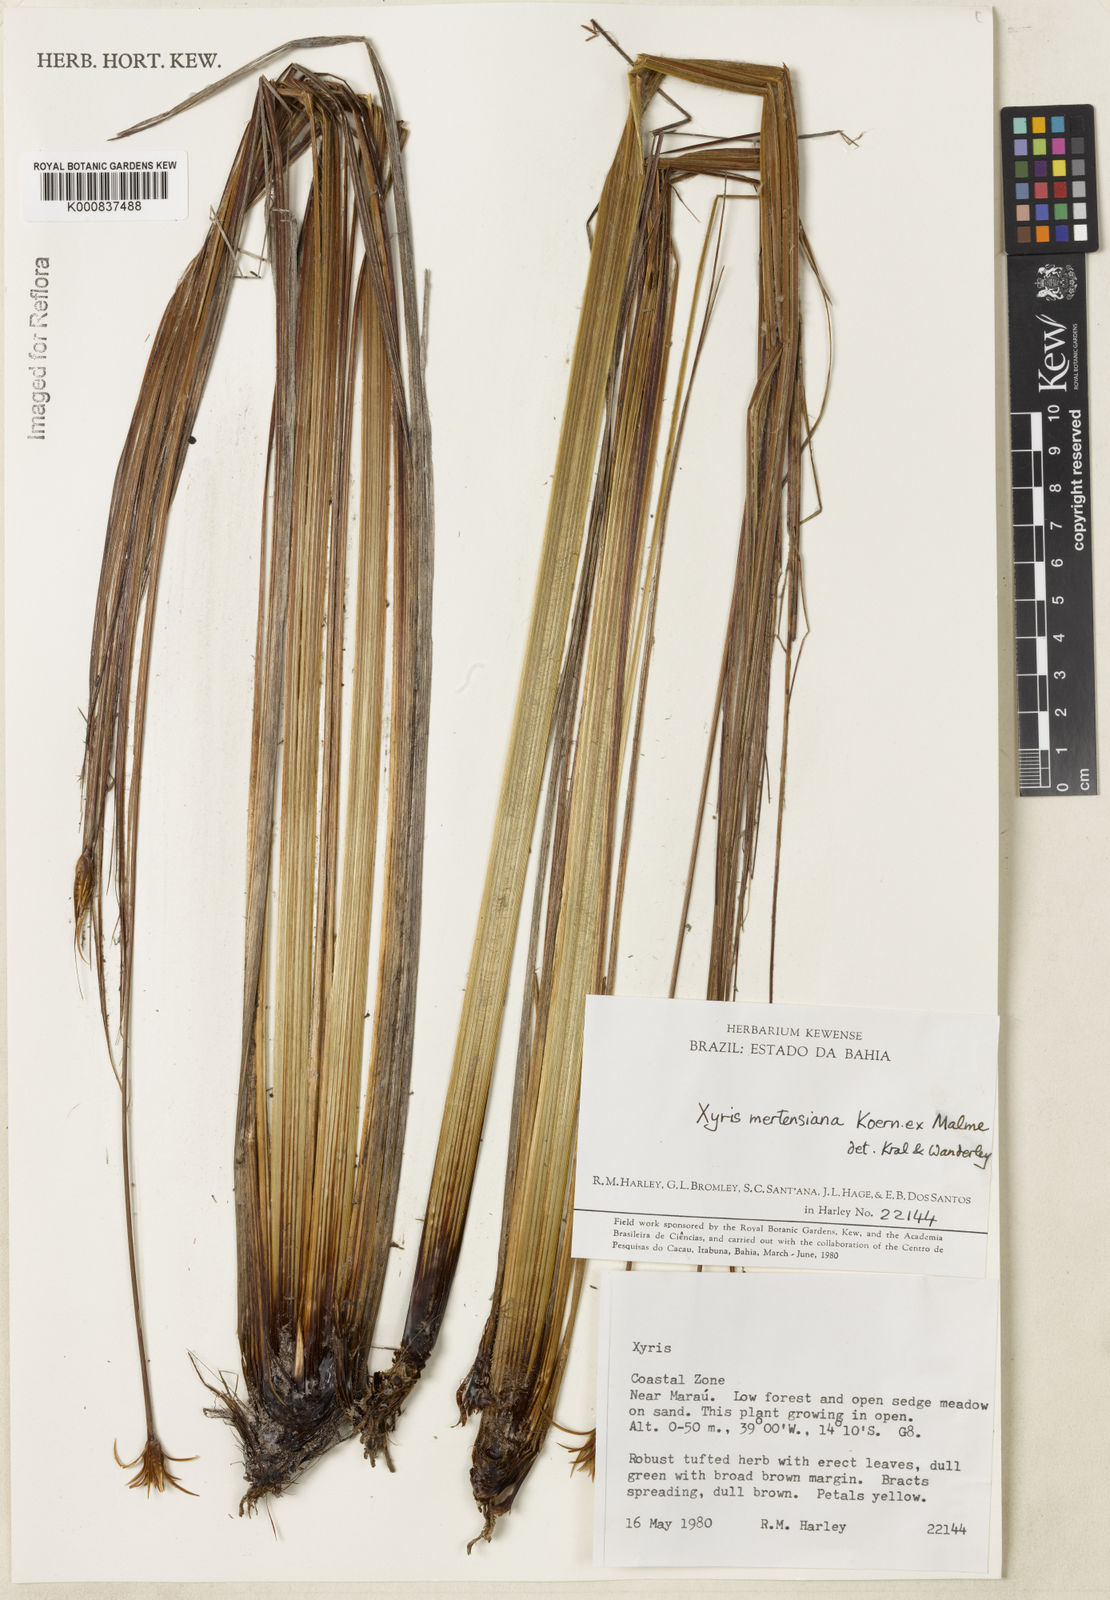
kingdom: Plantae
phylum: Tracheophyta
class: Liliopsida
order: Poales
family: Xyridaceae
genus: Xyris
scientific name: Xyris
